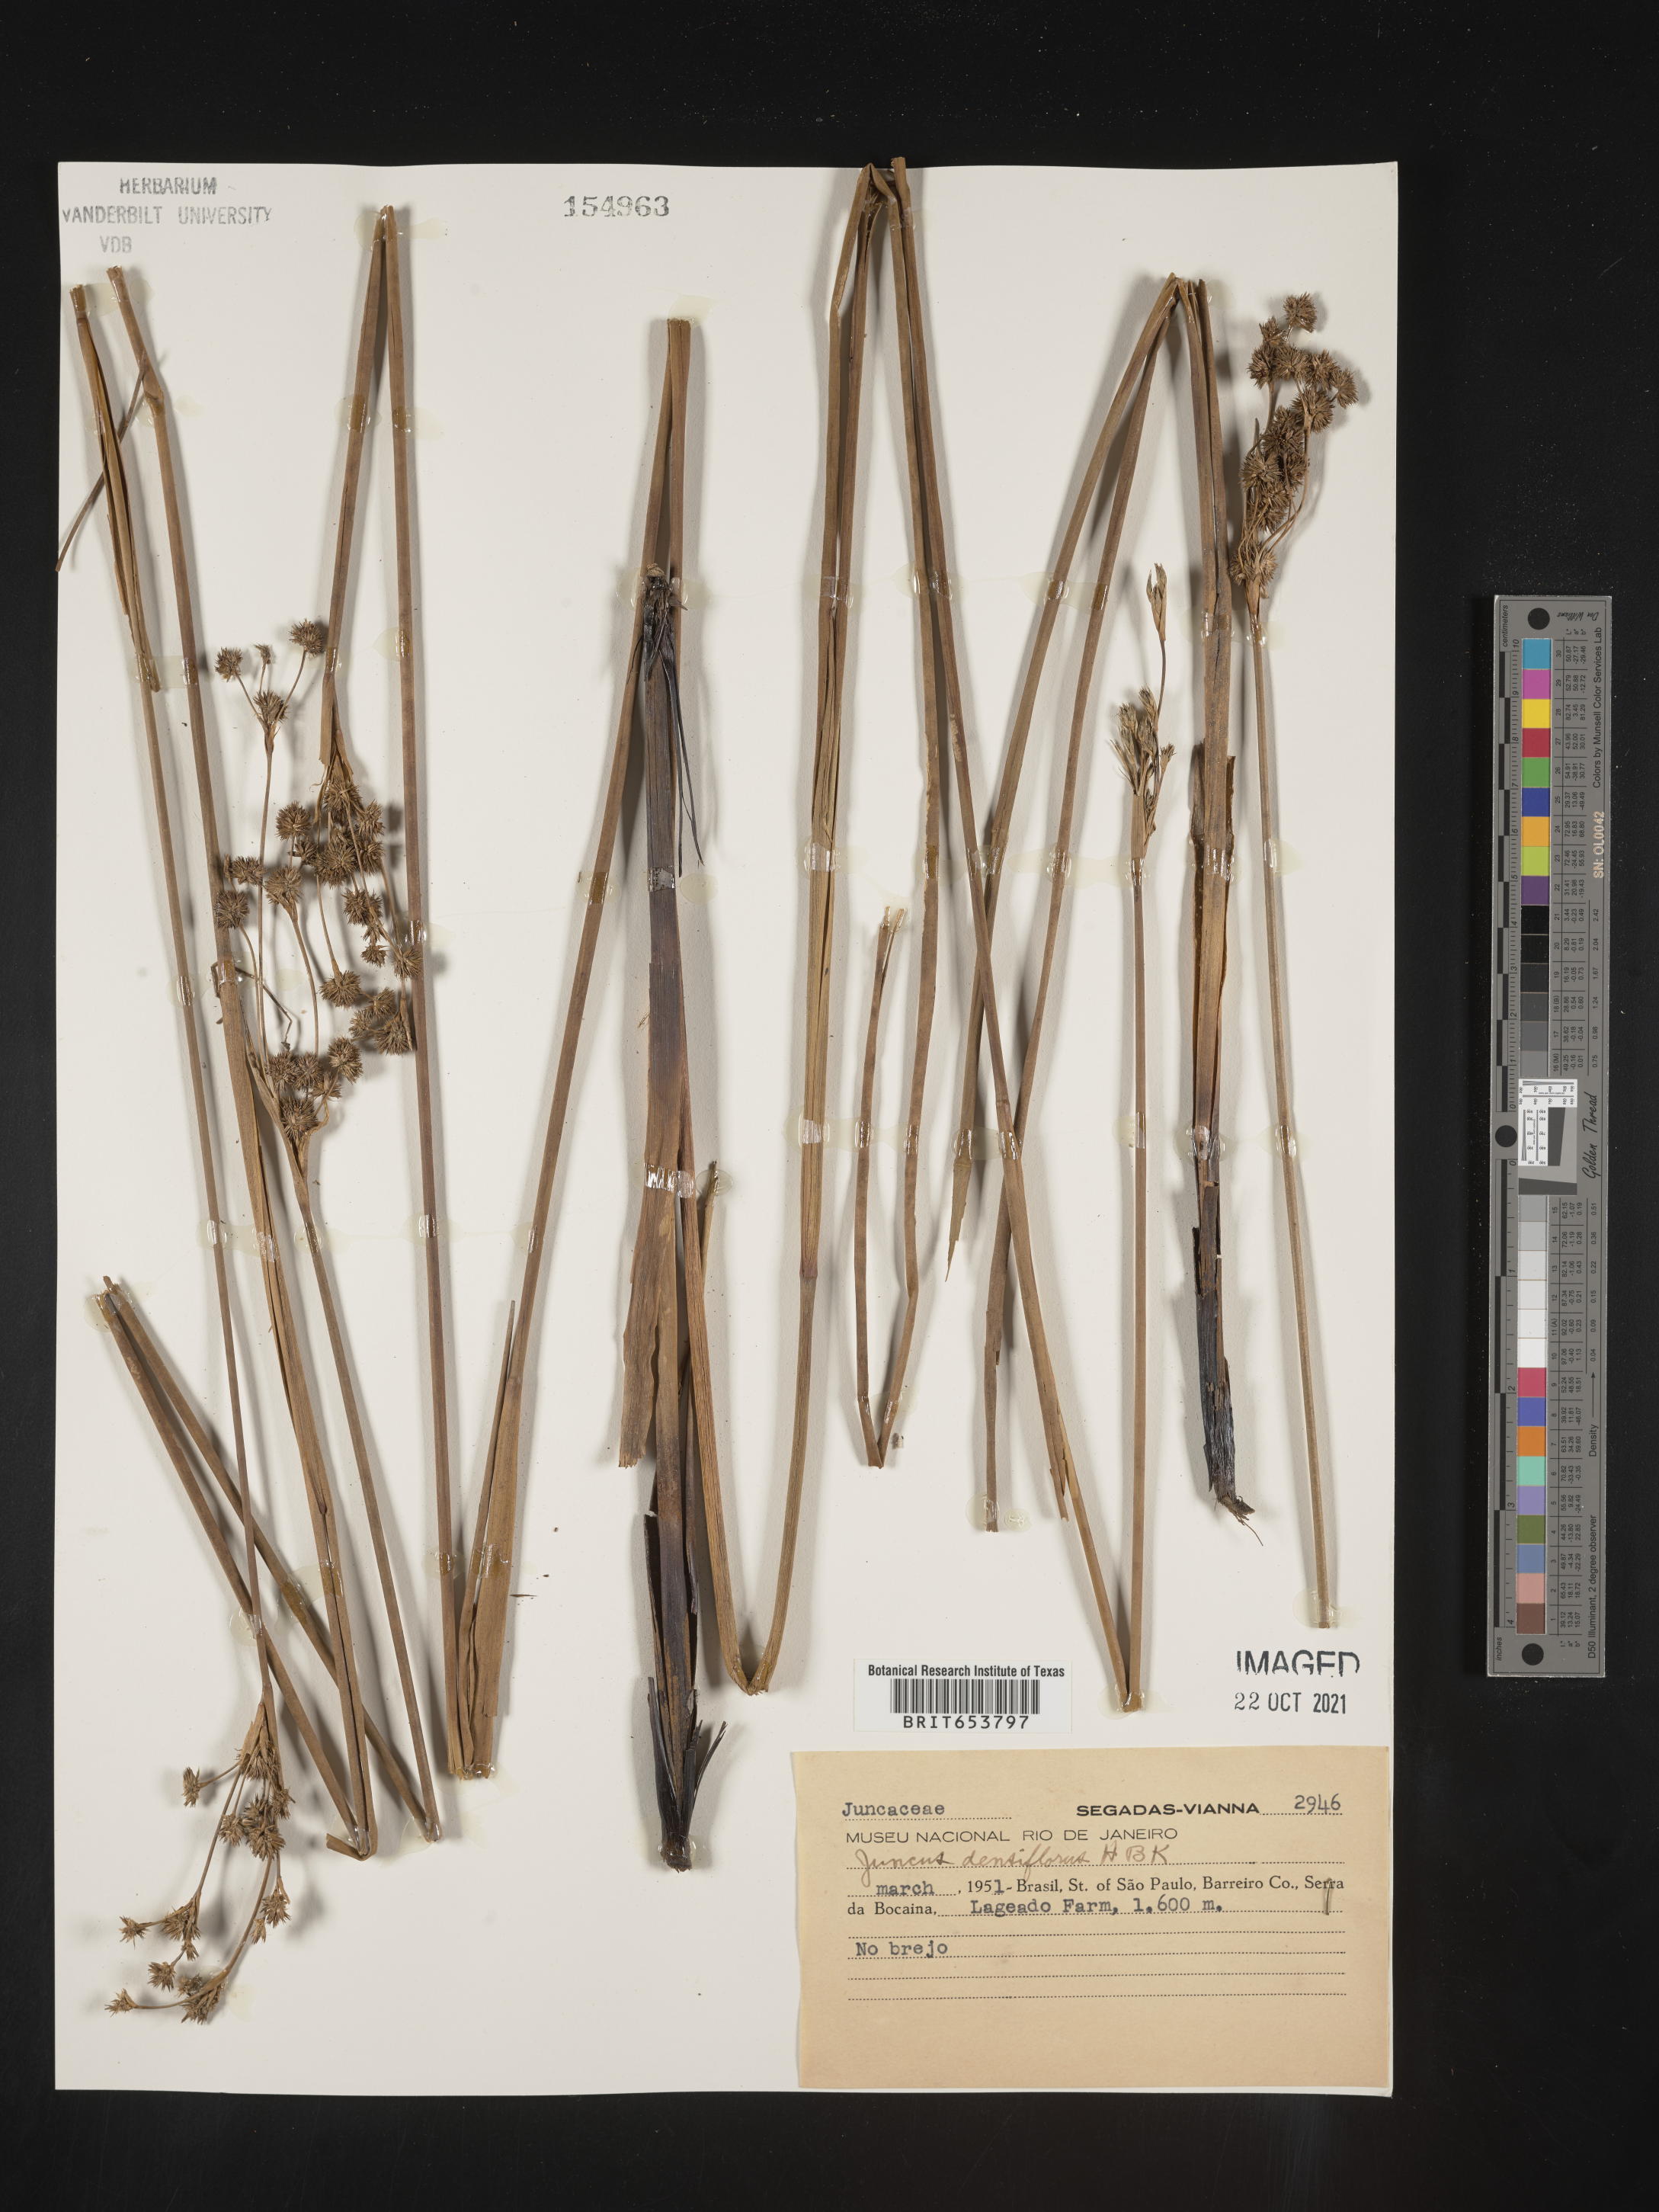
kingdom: Plantae
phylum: Tracheophyta
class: Liliopsida
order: Poales
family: Juncaceae
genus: Juncus
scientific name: Juncus
